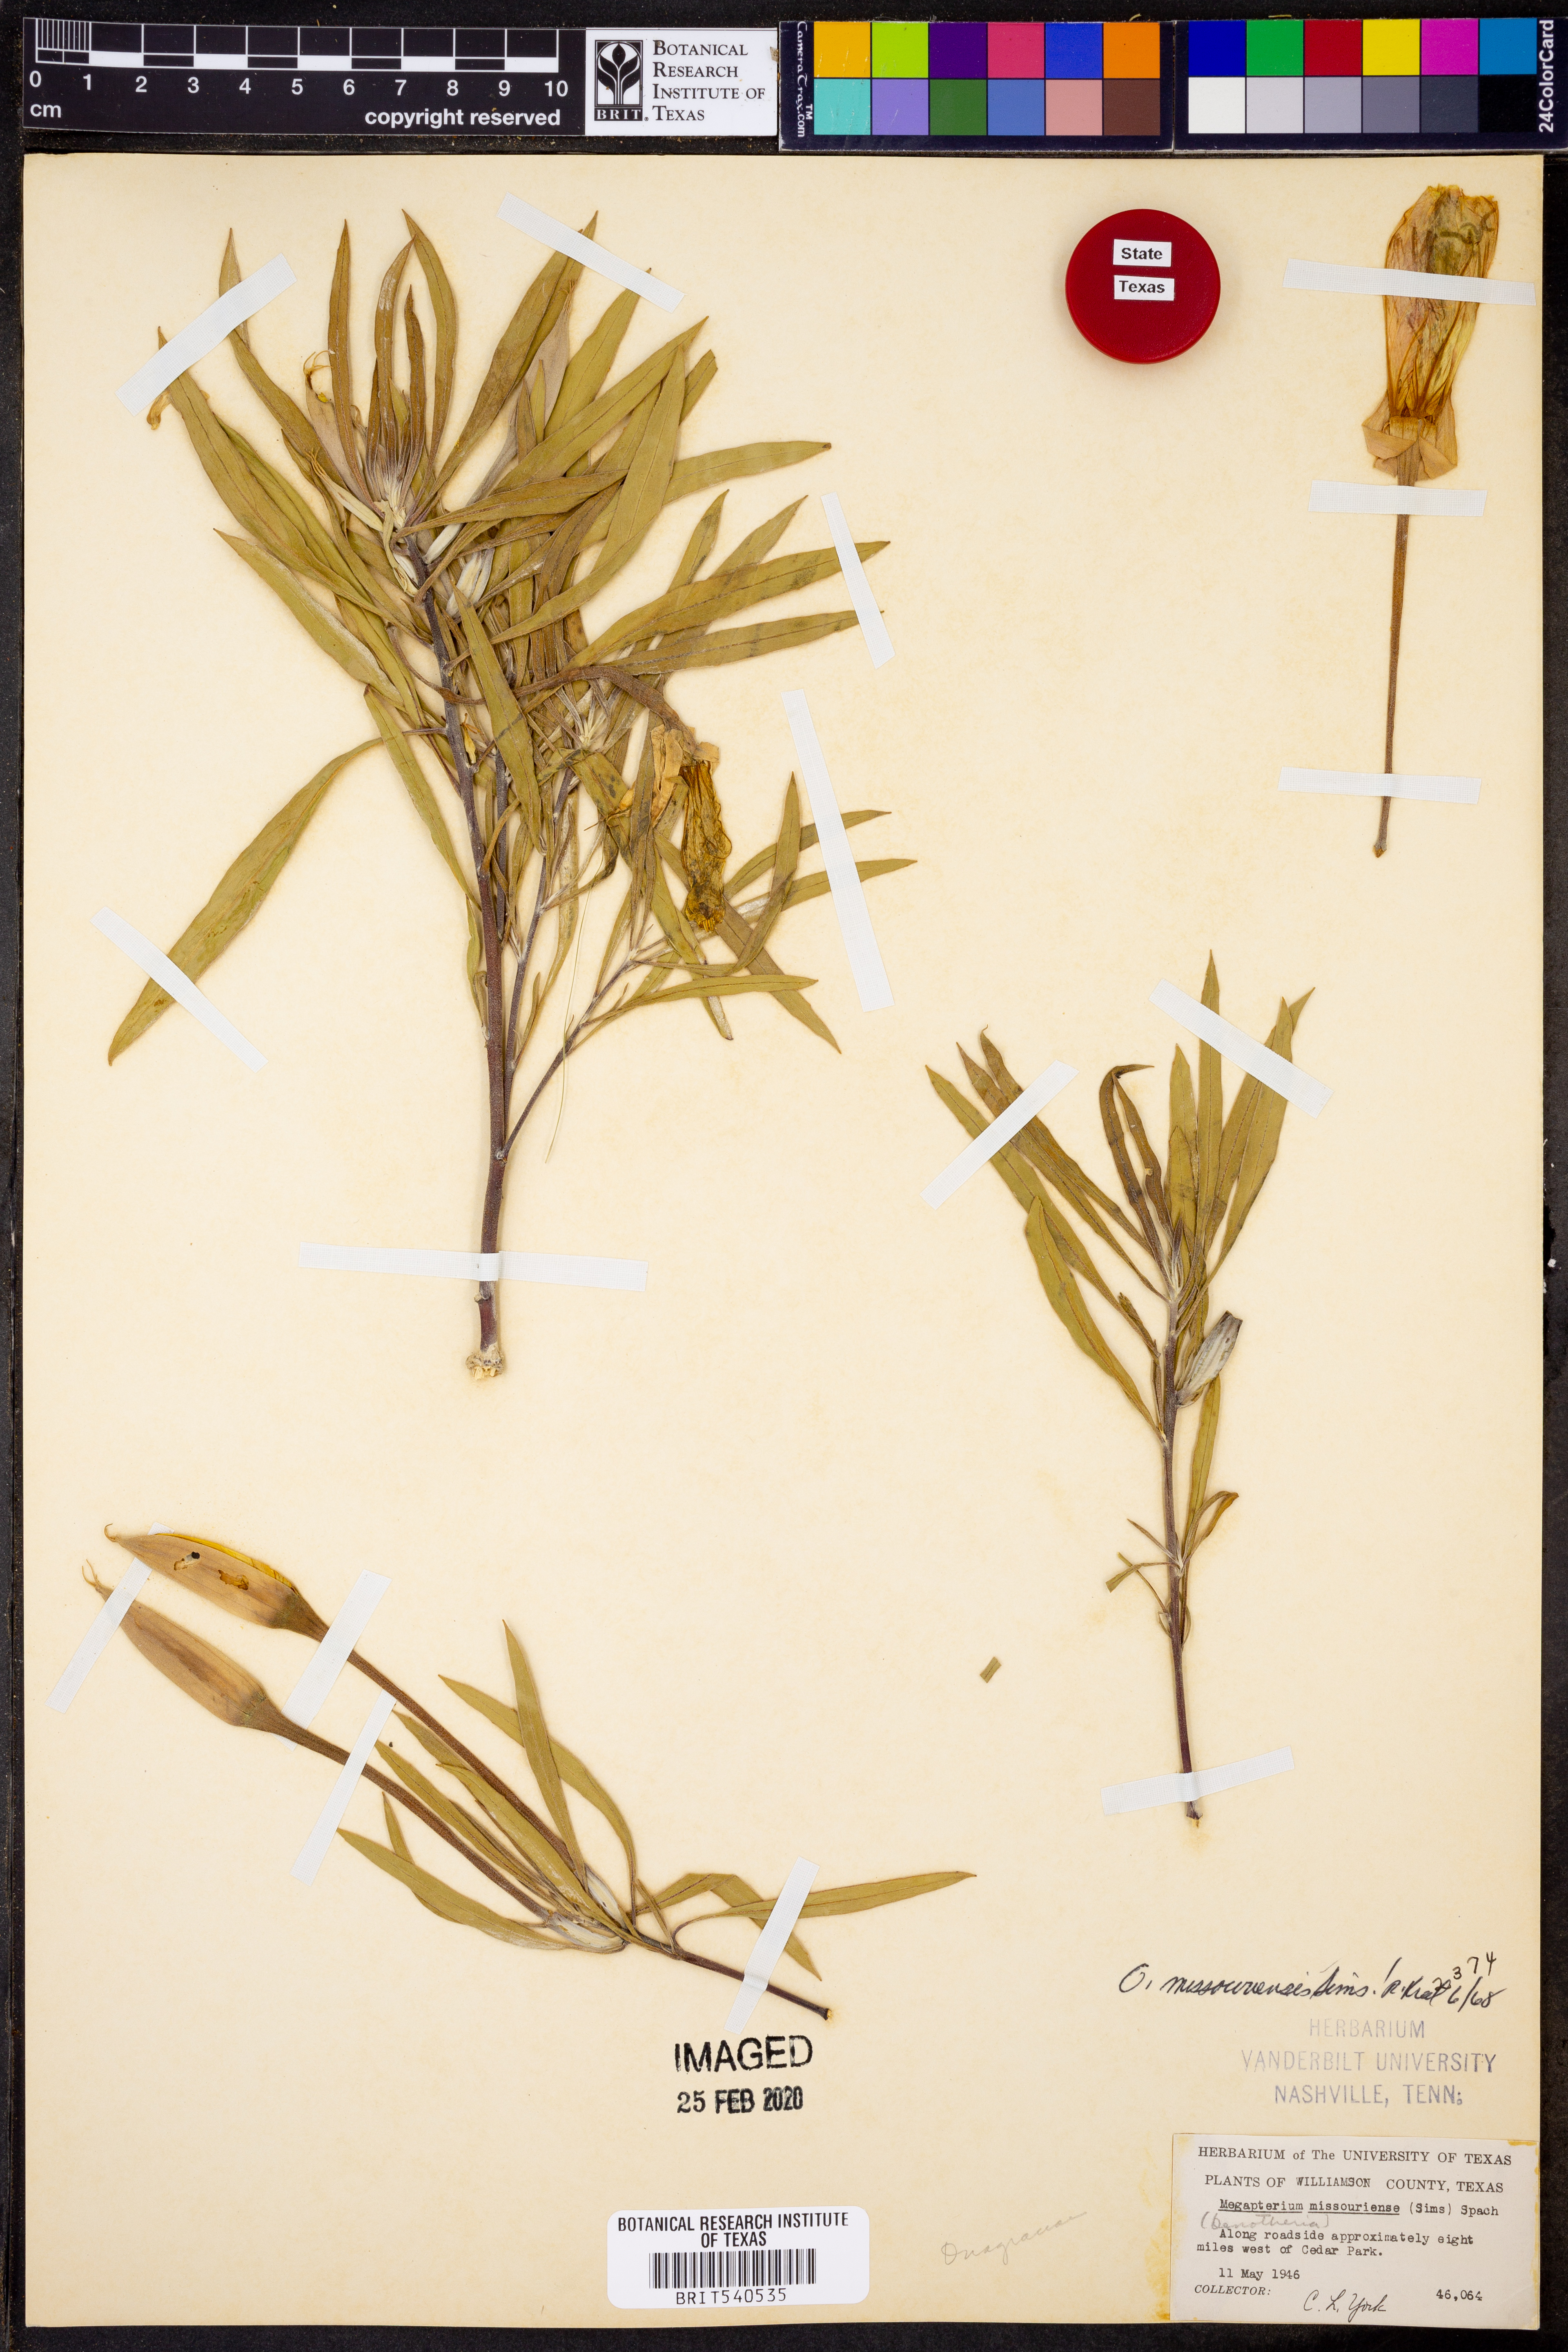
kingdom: Plantae
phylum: Tracheophyta
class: Magnoliopsida
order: Myrtales
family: Onagraceae
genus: Oenothera
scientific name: Oenothera macrocarpa
